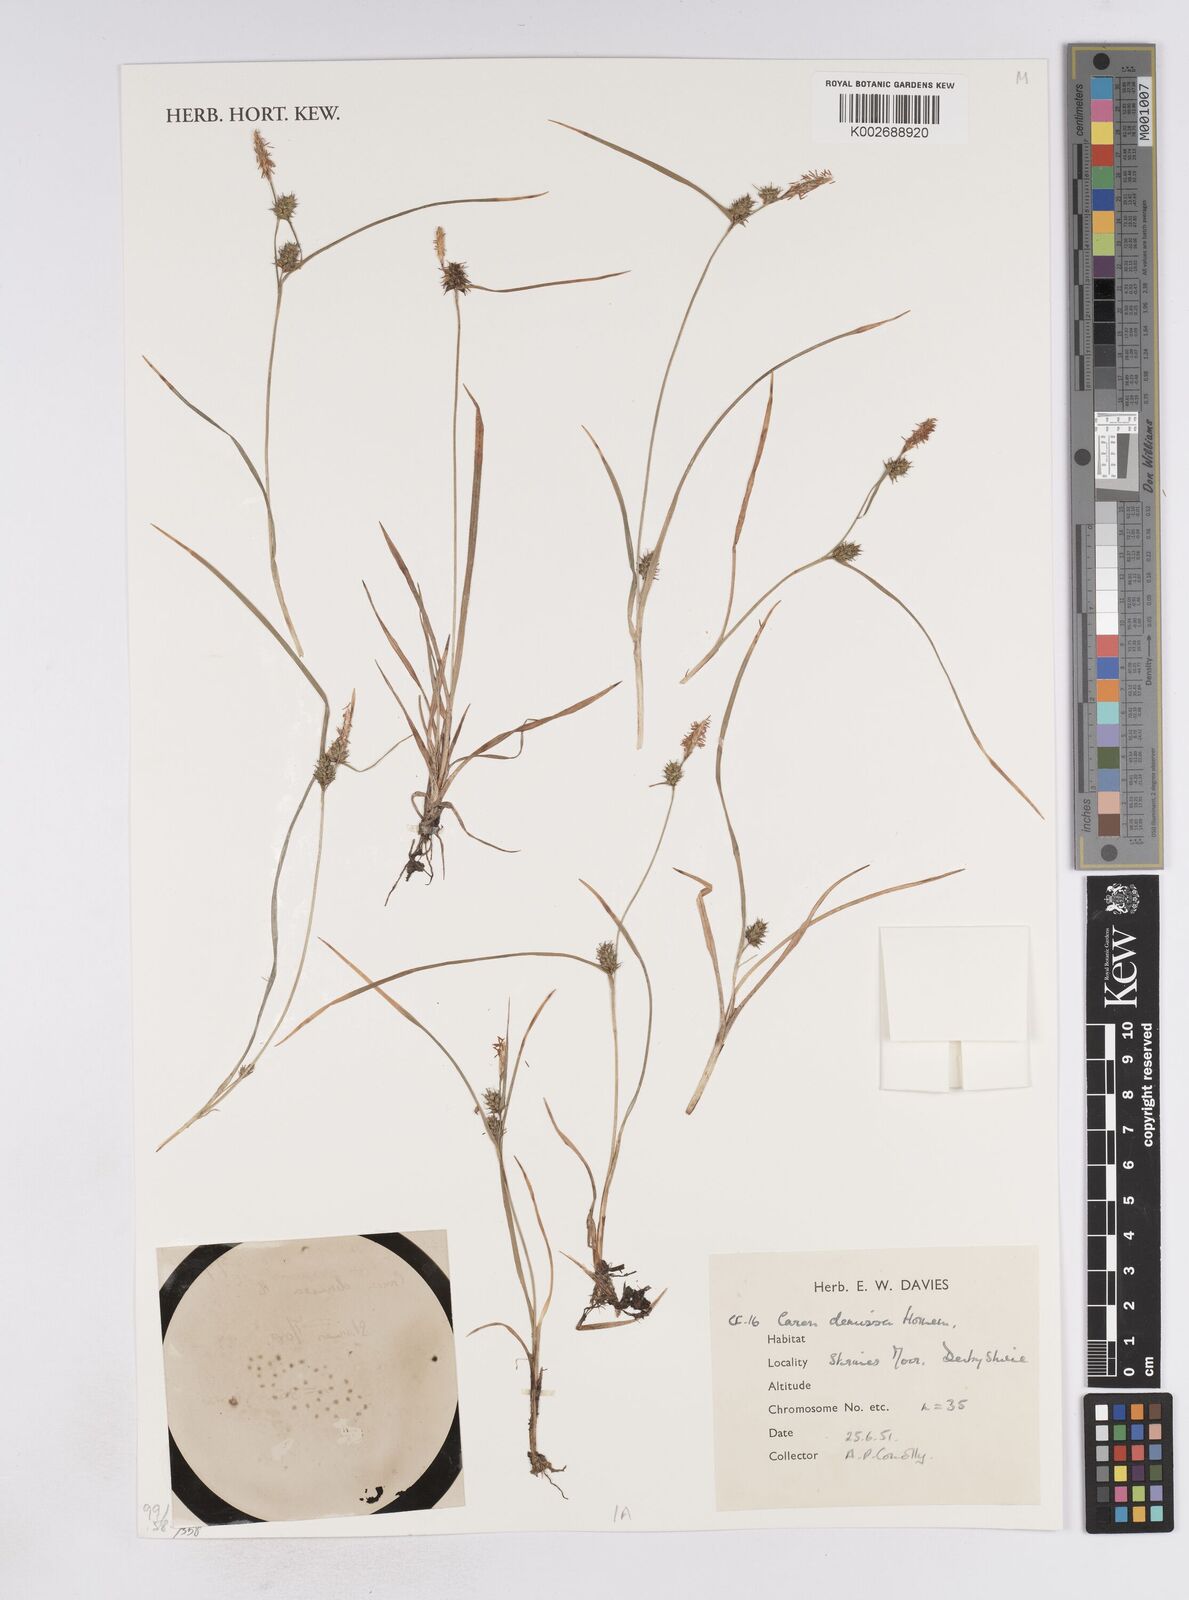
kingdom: Plantae
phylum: Tracheophyta
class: Liliopsida
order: Poales
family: Cyperaceae
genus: Carex
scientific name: Carex demissa
